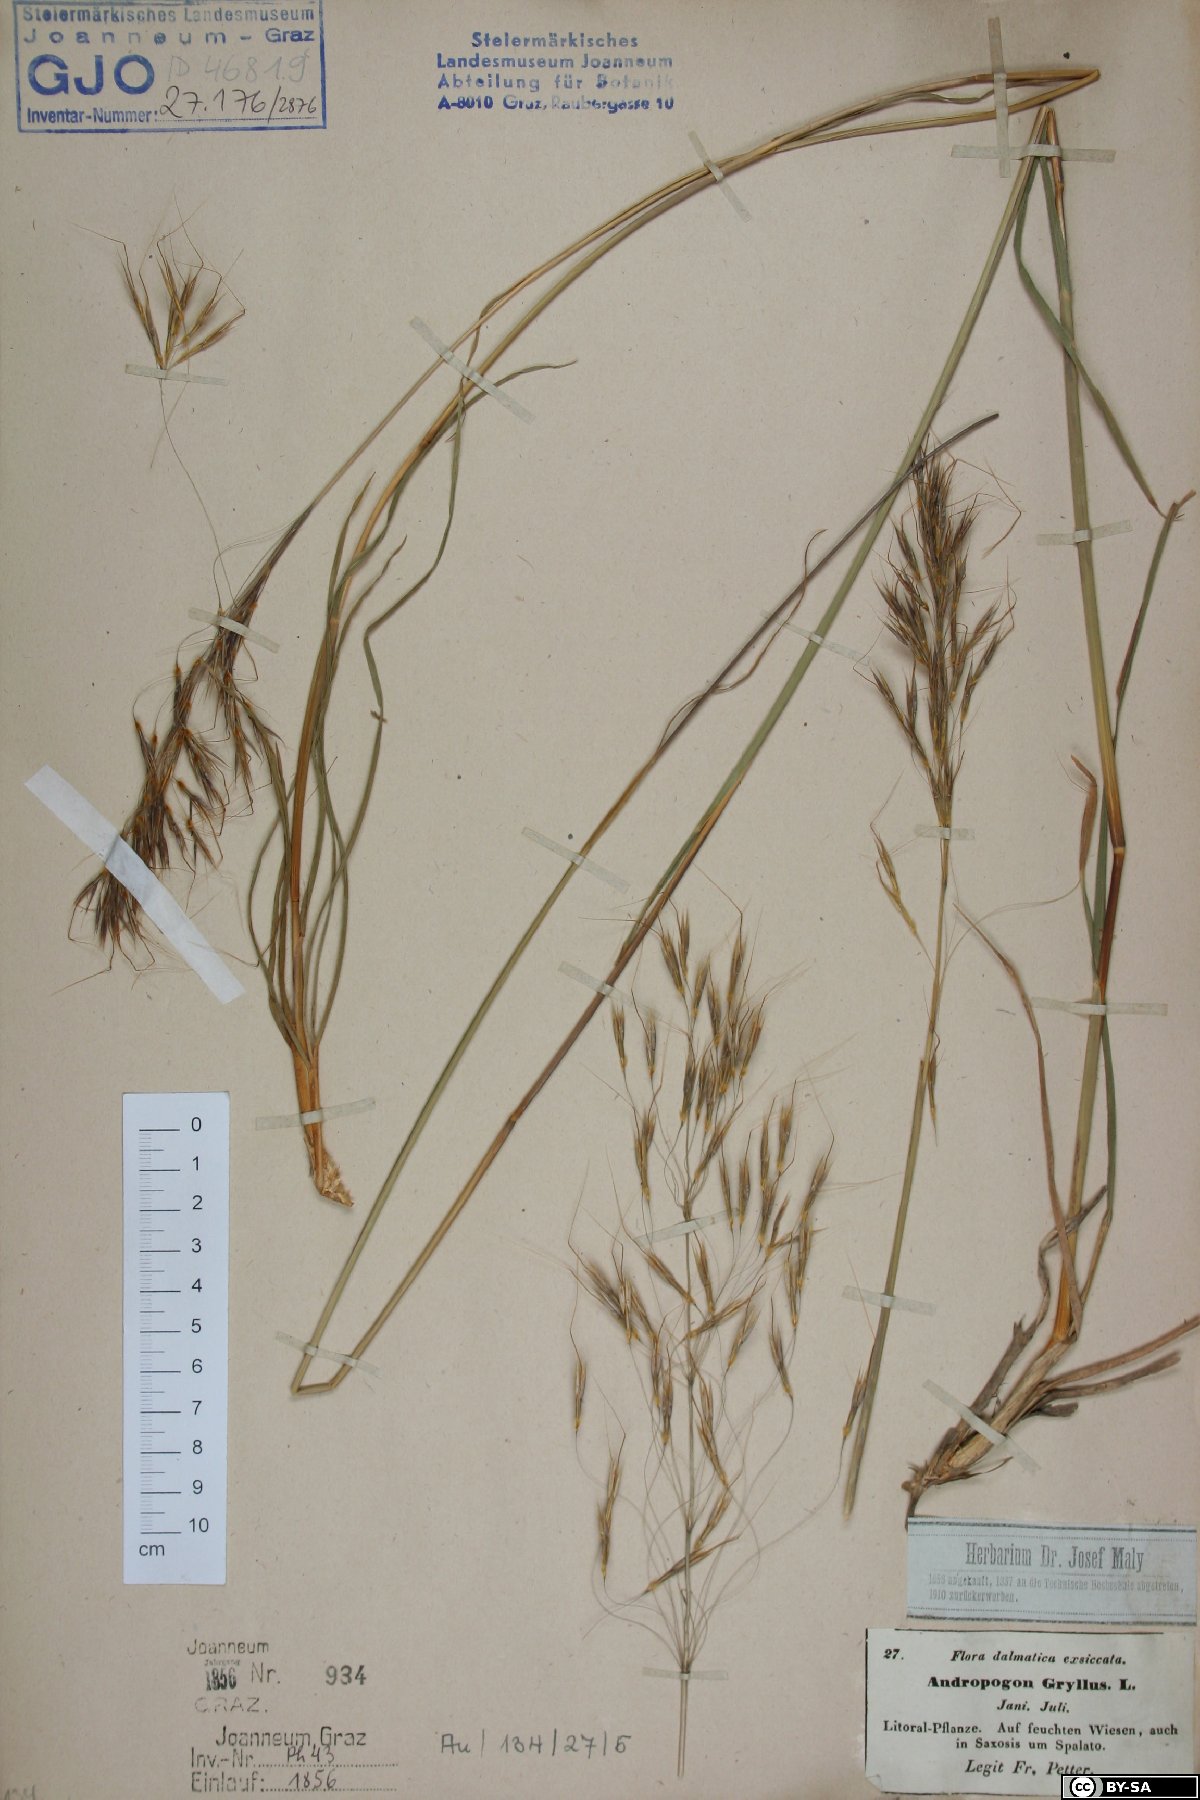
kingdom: Plantae
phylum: Tracheophyta
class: Liliopsida
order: Poales
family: Poaceae
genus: Chrysopogon
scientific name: Chrysopogon gryllus
